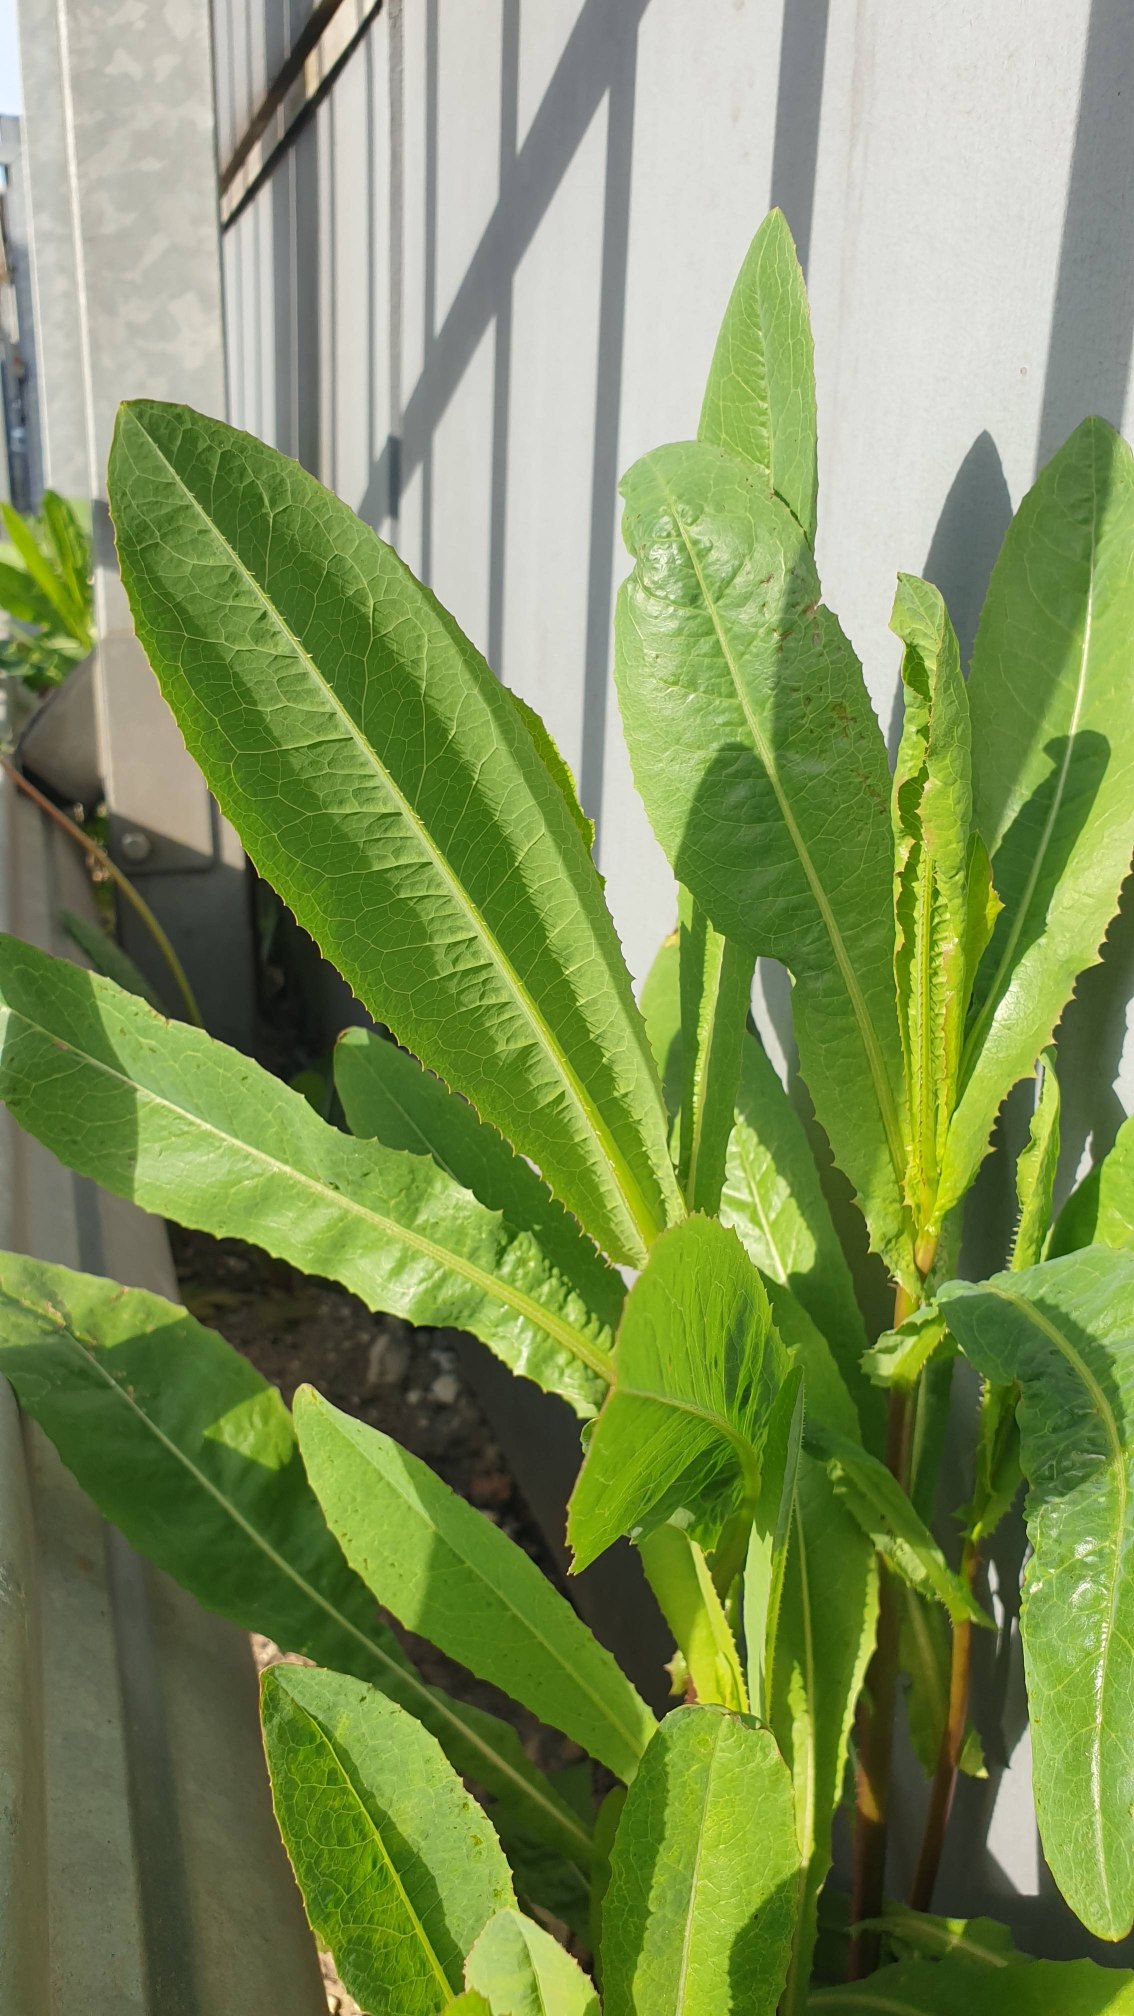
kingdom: Plantae
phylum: Tracheophyta
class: Magnoliopsida
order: Asterales
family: Asteraceae
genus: Lactuca
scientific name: Lactuca serriola
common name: Tornet salat
